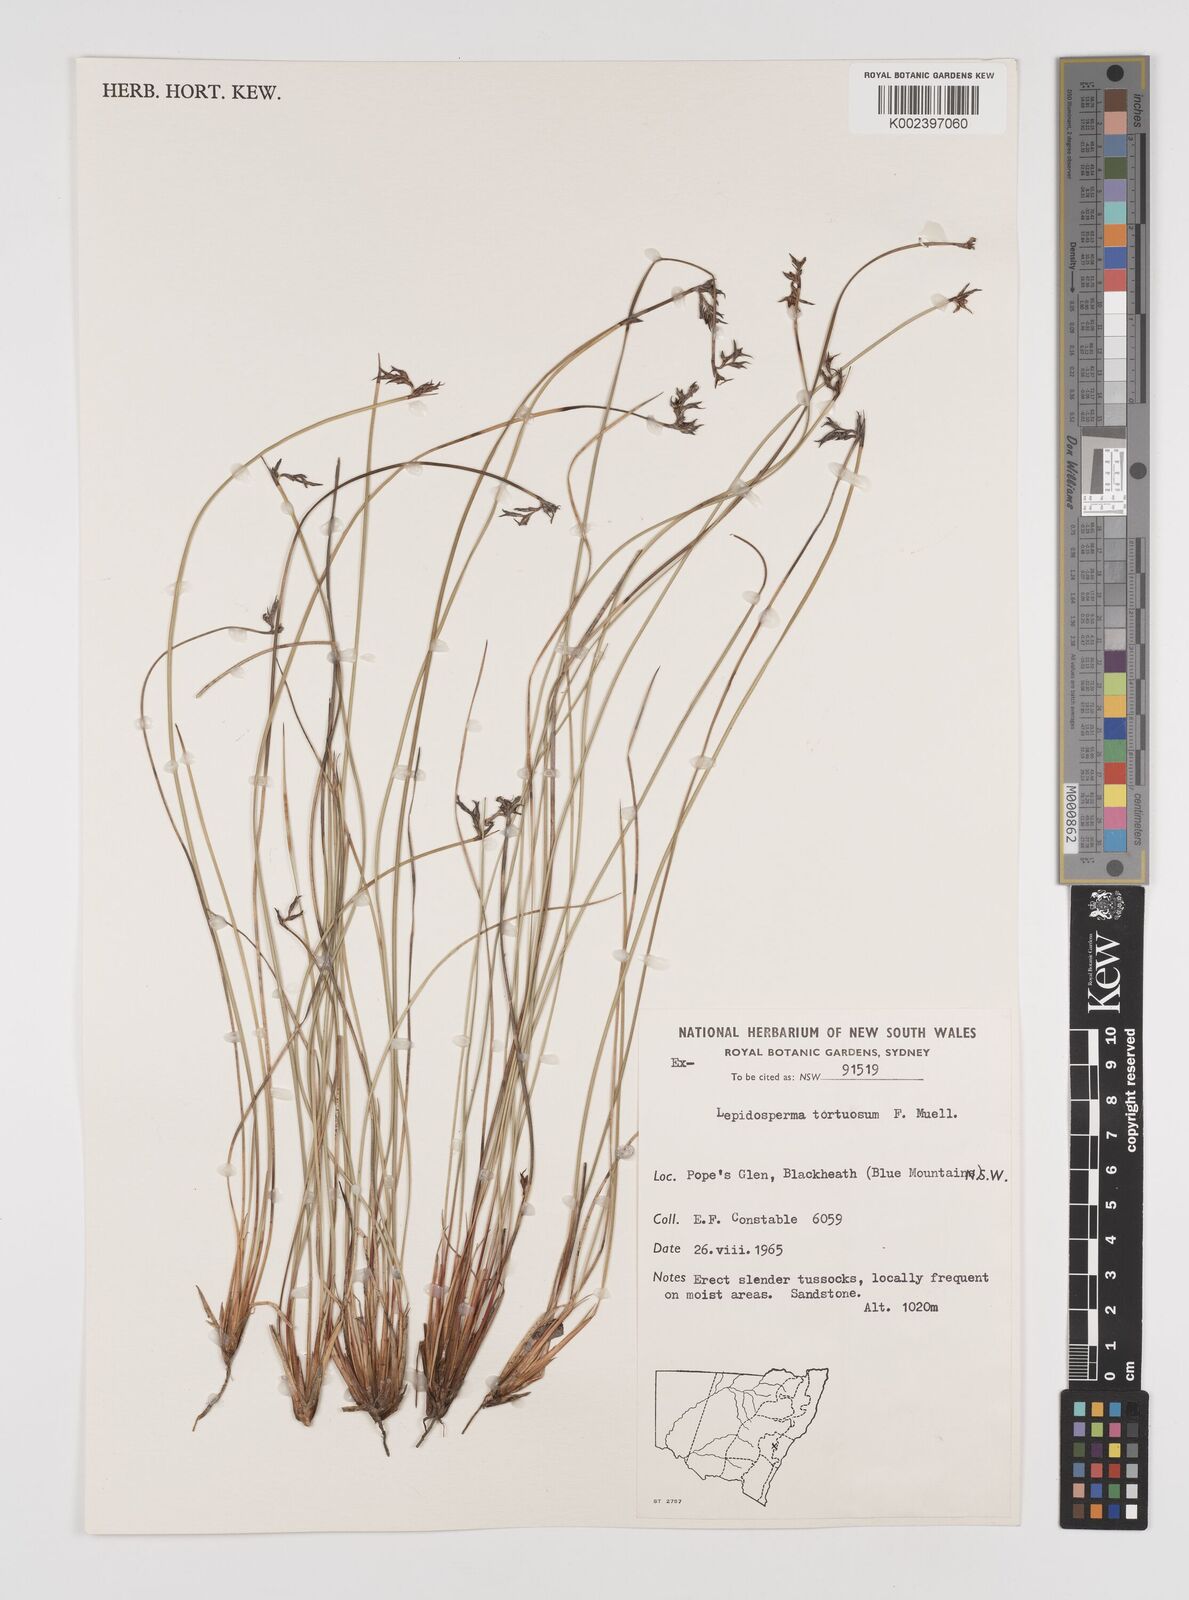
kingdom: Plantae
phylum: Tracheophyta
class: Liliopsida
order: Poales
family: Cyperaceae
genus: Lepidosperma
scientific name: Lepidosperma tortuosum
